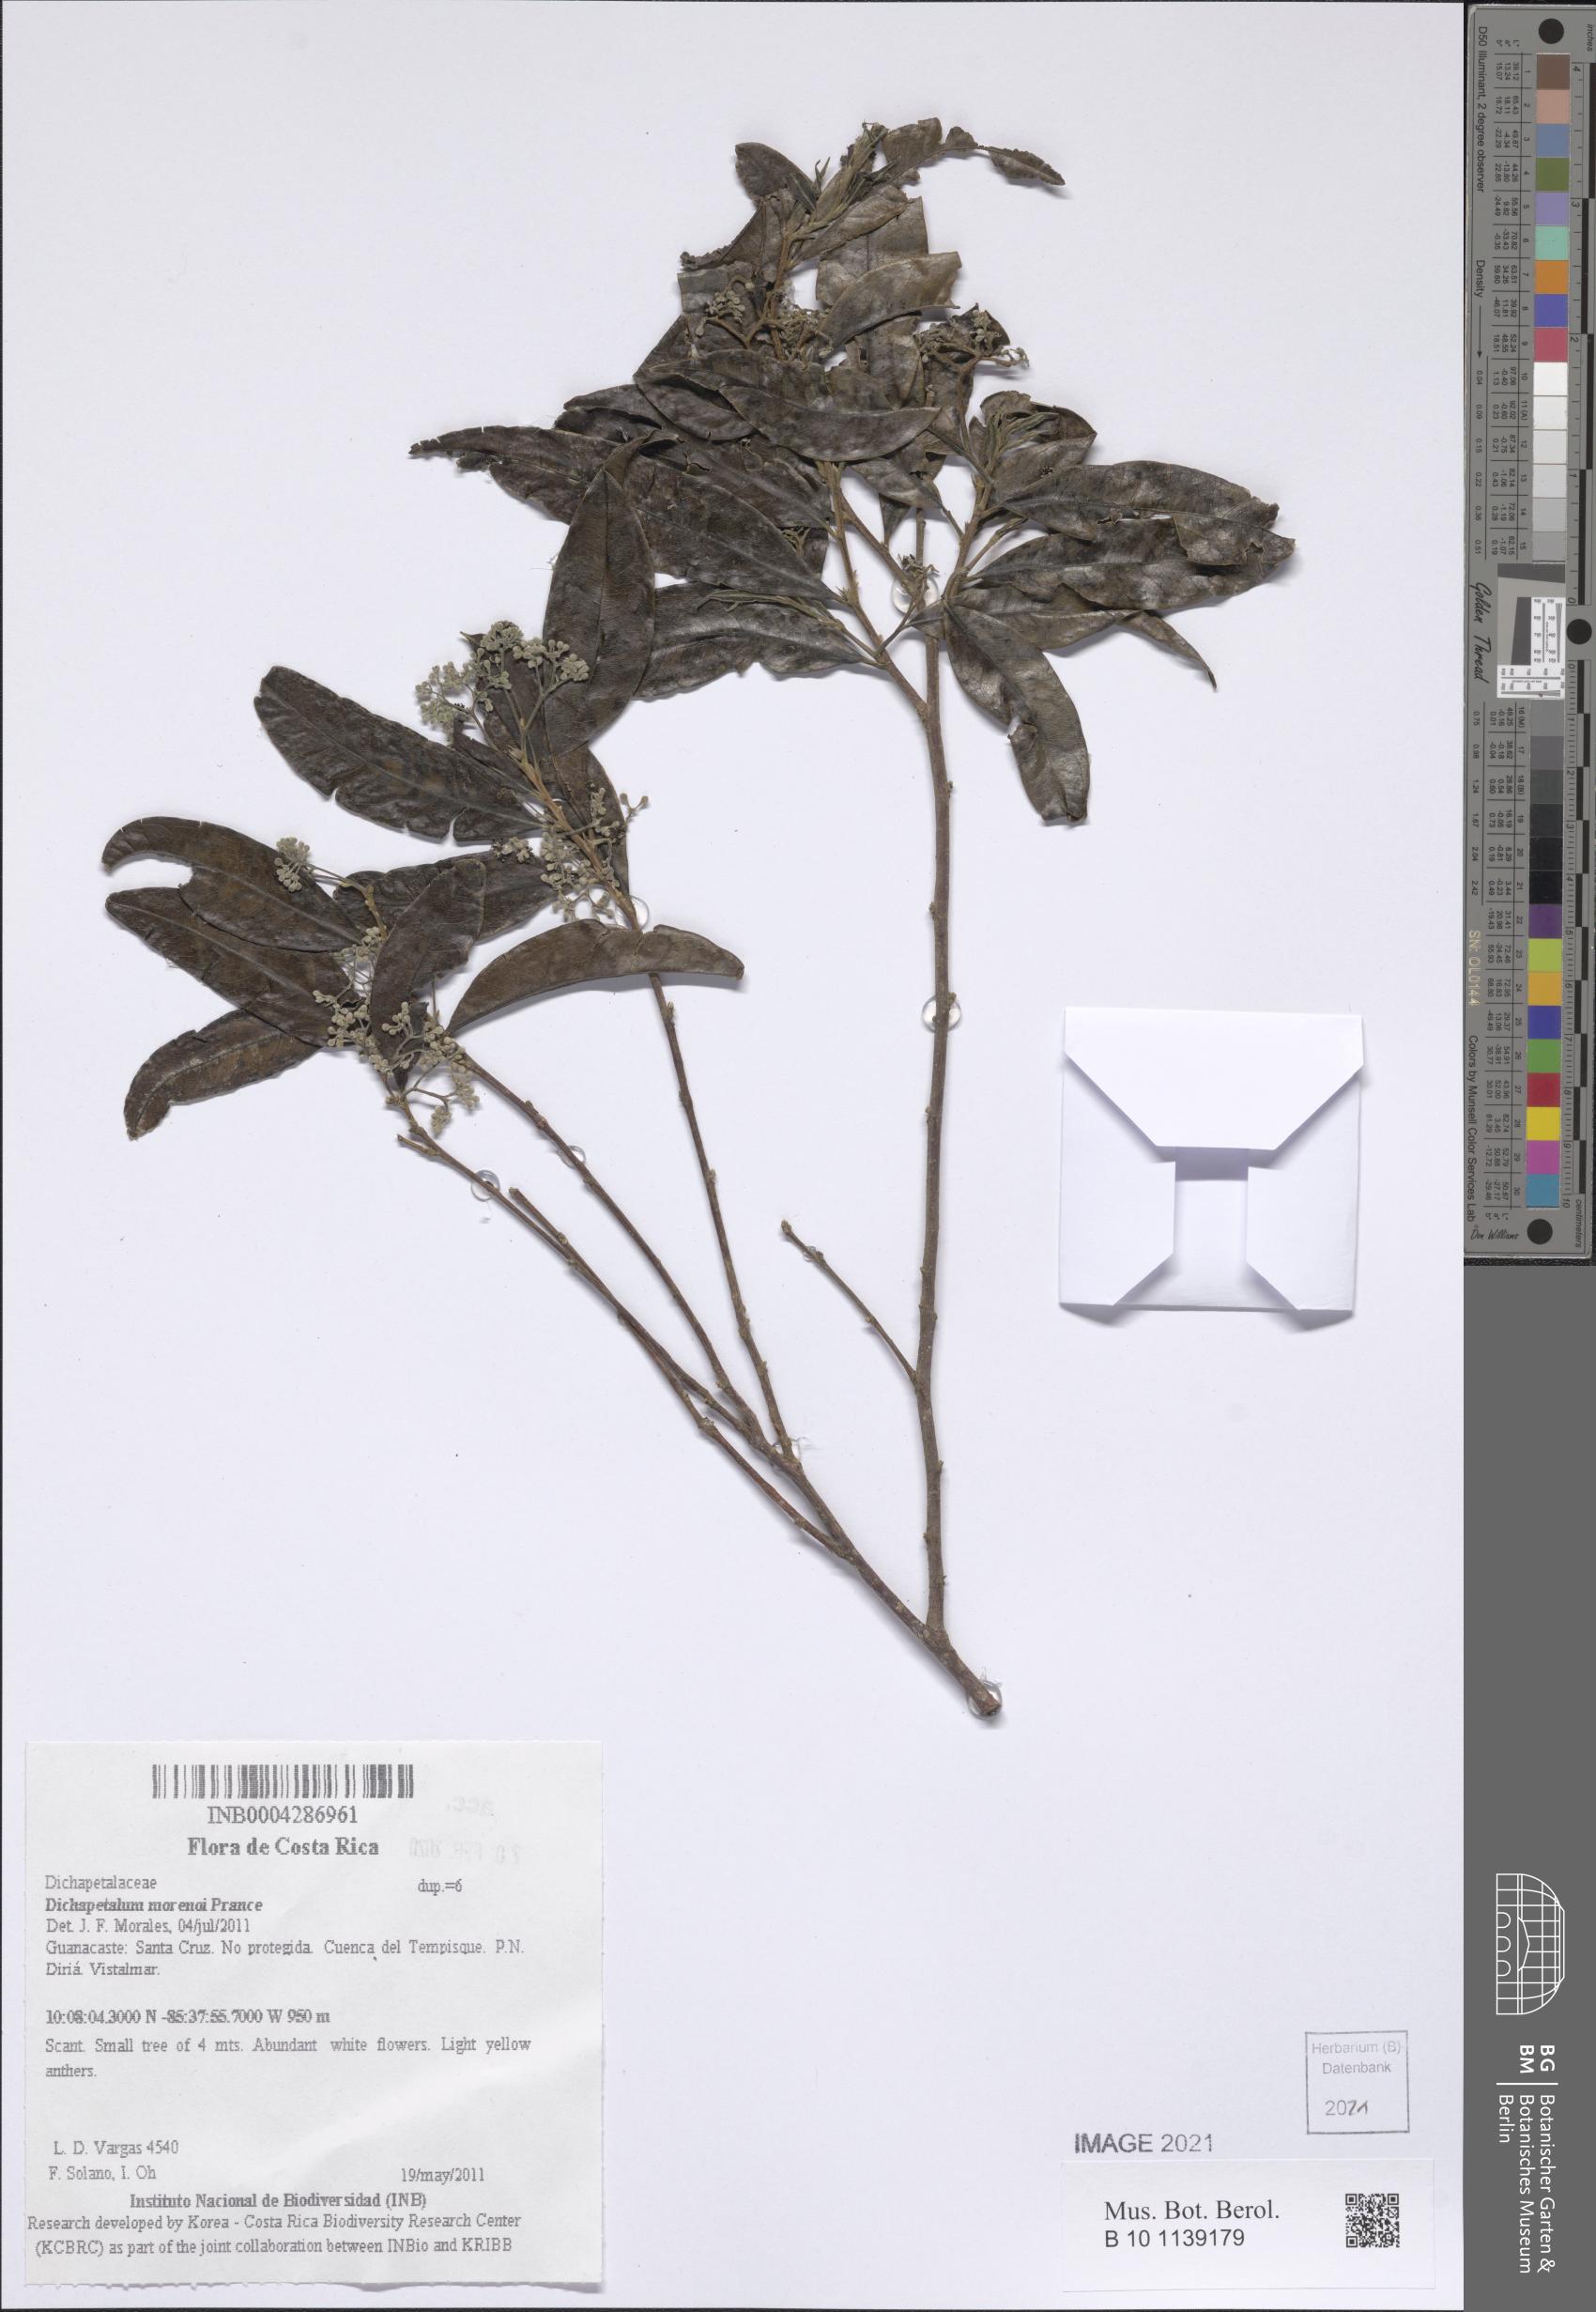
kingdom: Plantae
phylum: Tracheophyta
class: Magnoliopsida
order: Malpighiales
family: Dichapetalaceae
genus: Dichapetalum
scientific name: Dichapetalum morenoi
